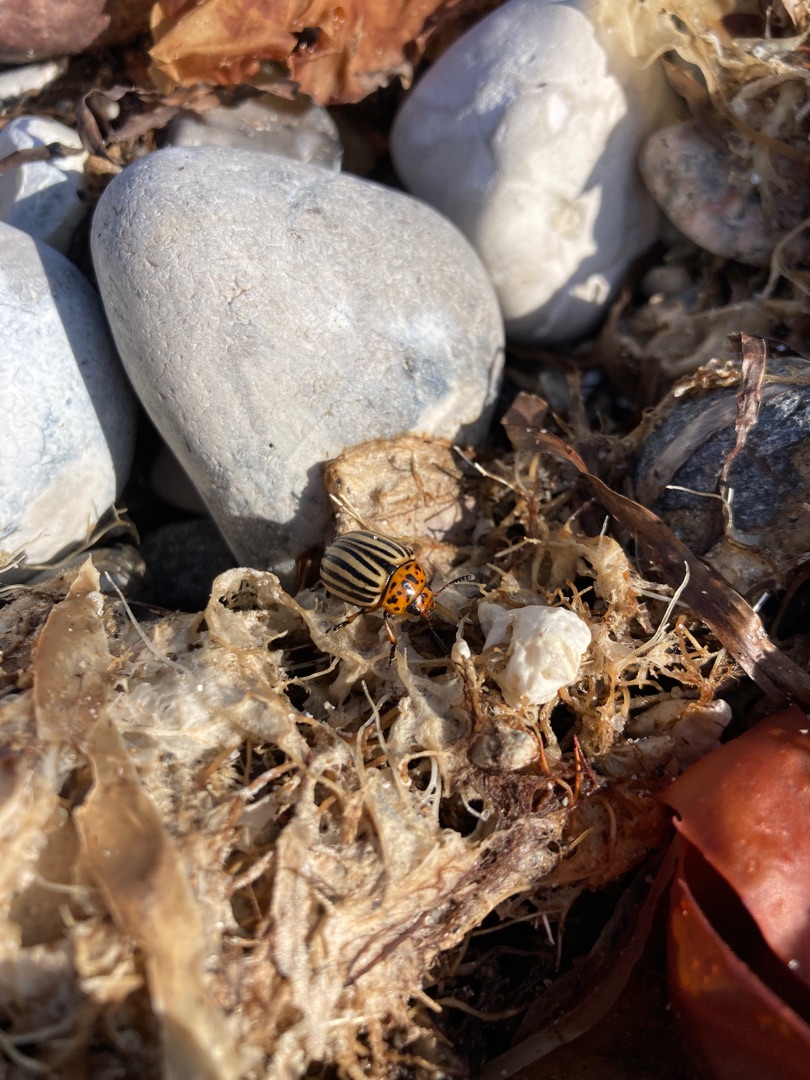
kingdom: Animalia
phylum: Arthropoda
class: Insecta
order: Coleoptera
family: Chrysomelidae
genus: Leptinotarsa
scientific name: Leptinotarsa decemlineata
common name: Coloradobille
